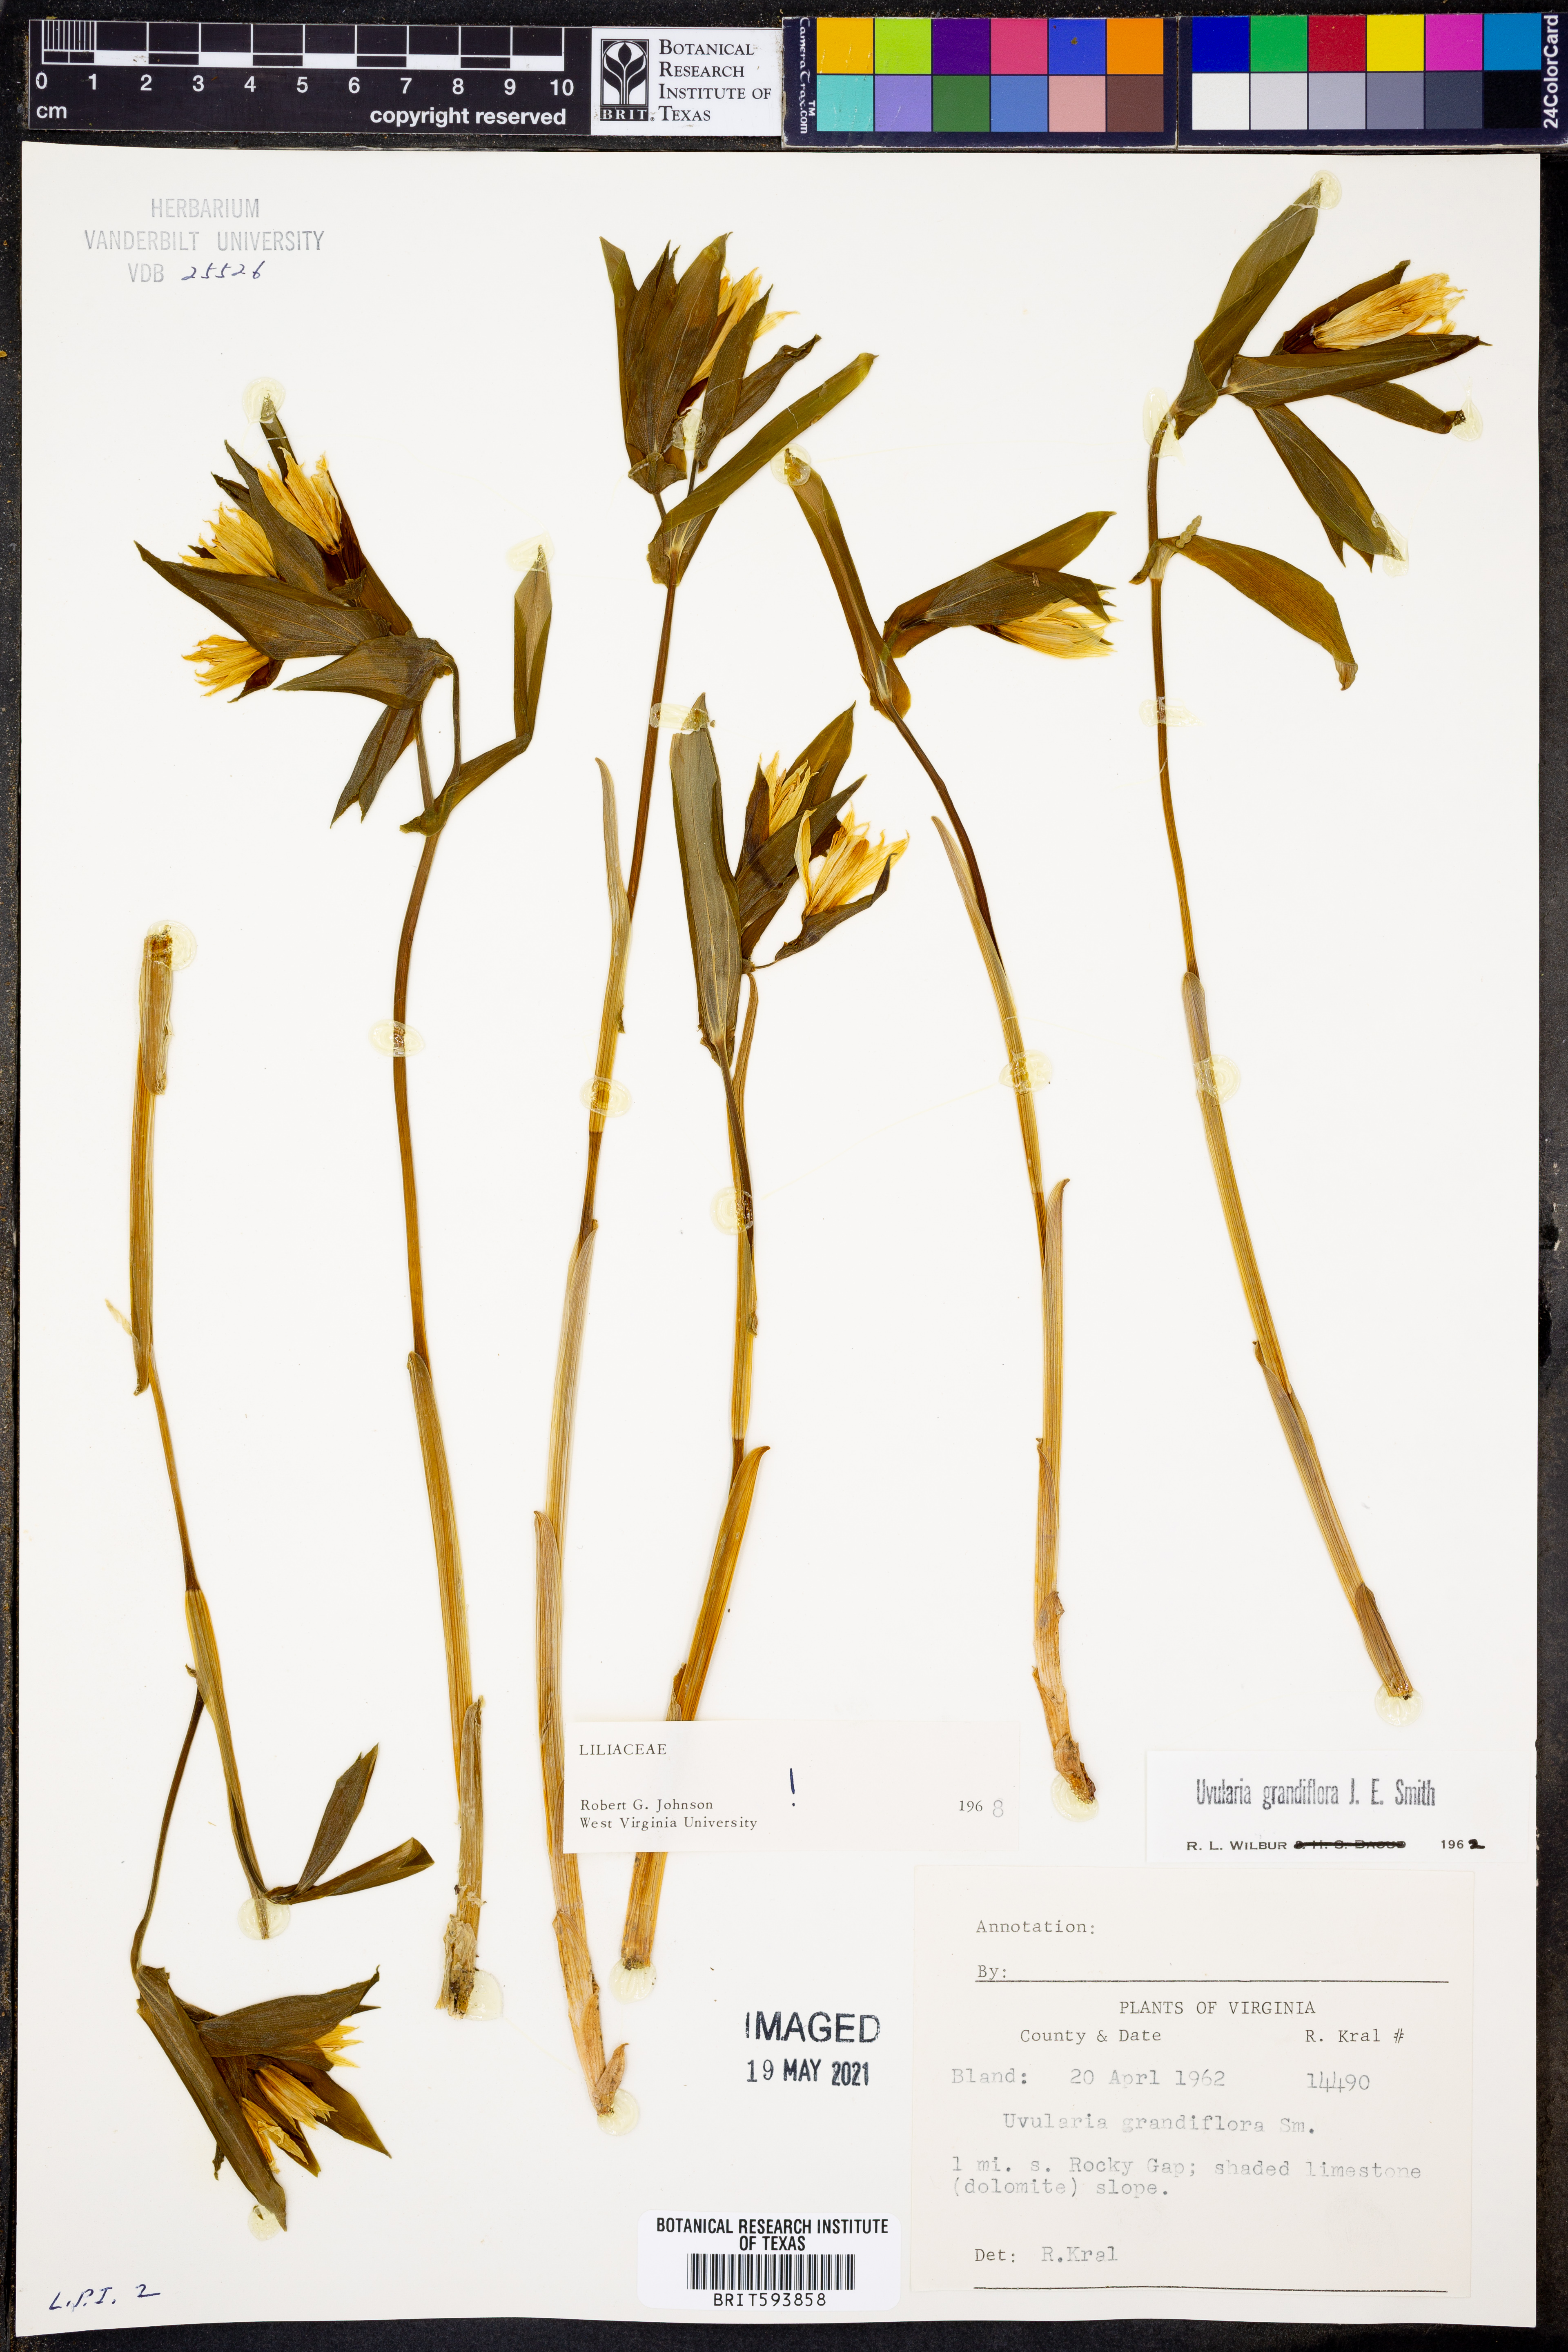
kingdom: Plantae
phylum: Tracheophyta
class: Liliopsida
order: Liliales
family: Colchicaceae
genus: Uvularia
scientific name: Uvularia grandiflora
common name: Bellwort
